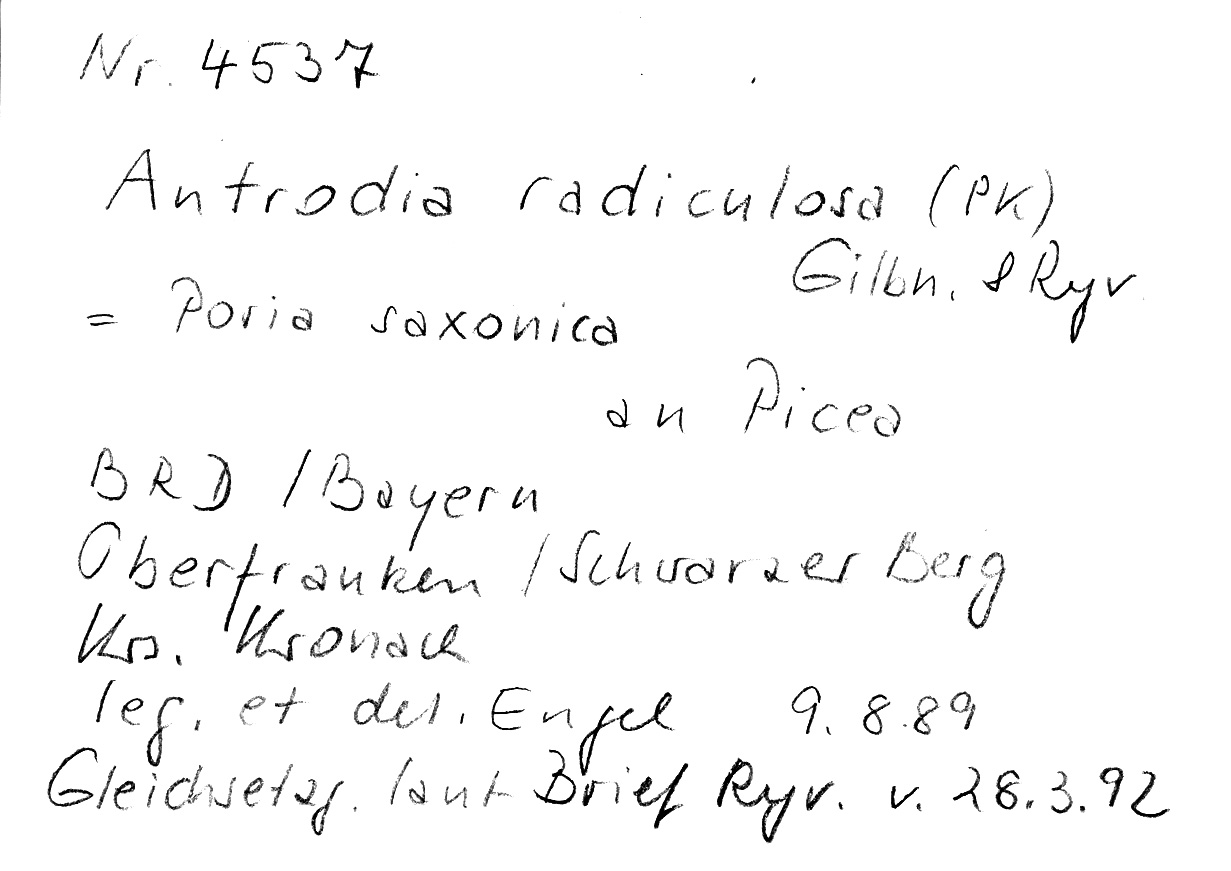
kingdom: Fungi
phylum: Basidiomycota
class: Agaricomycetes
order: Polyporales
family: Fibroporiaceae
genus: Fibroporia
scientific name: Fibroporia radiculosa
